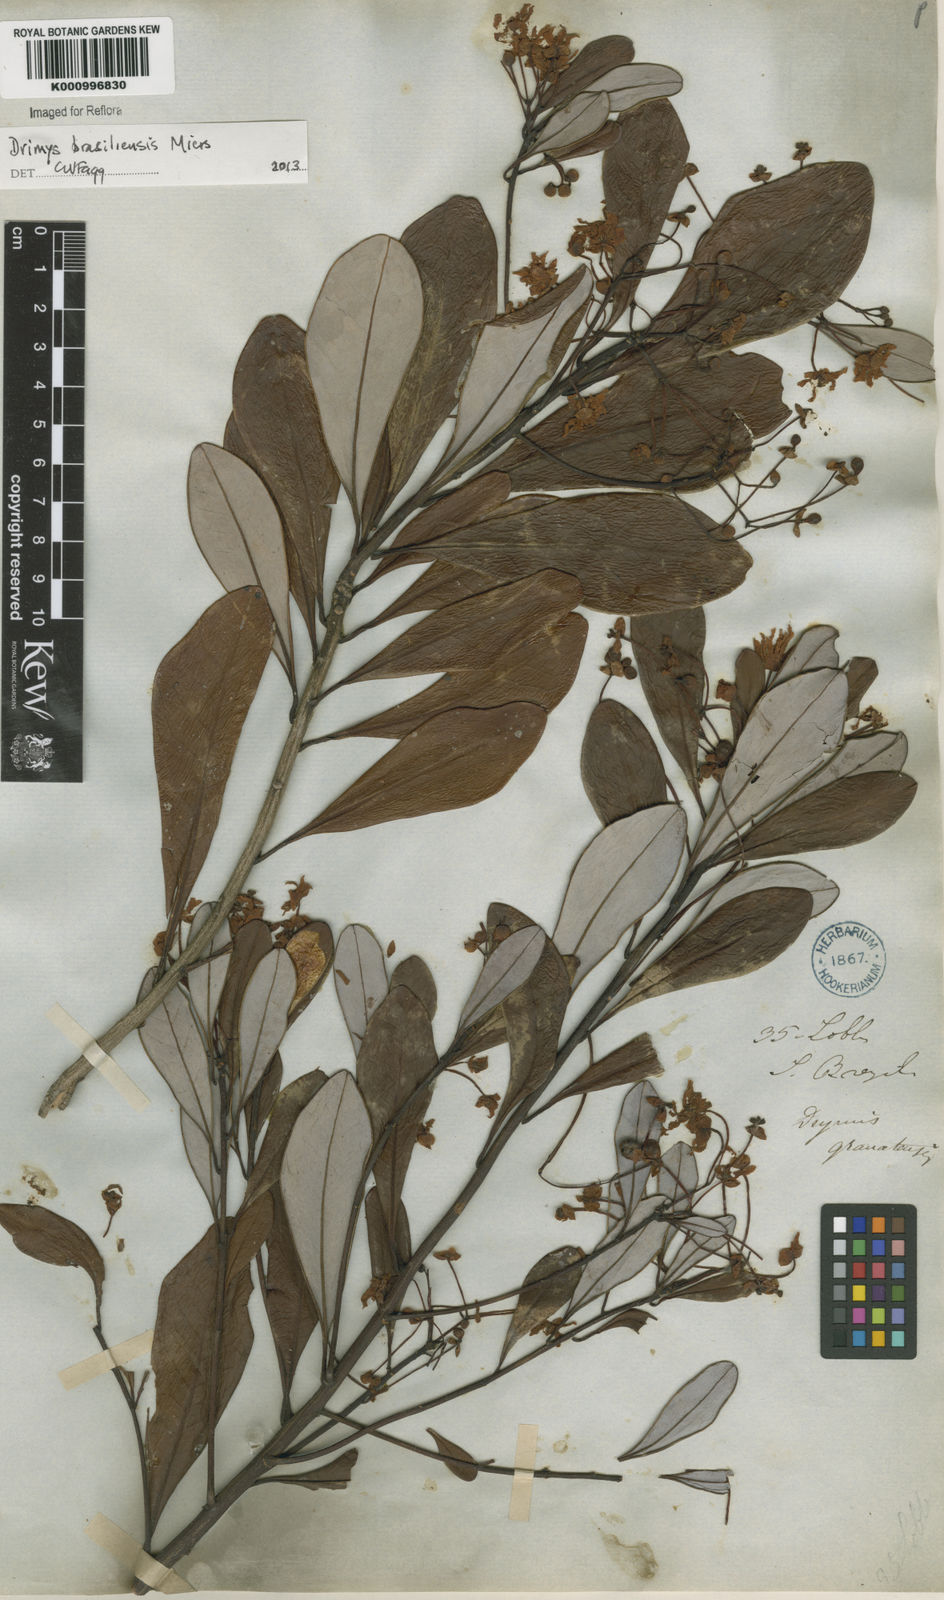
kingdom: Plantae
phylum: Tracheophyta
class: Magnoliopsida
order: Canellales
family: Winteraceae
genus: Drimys
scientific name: Drimys brasiliensis
